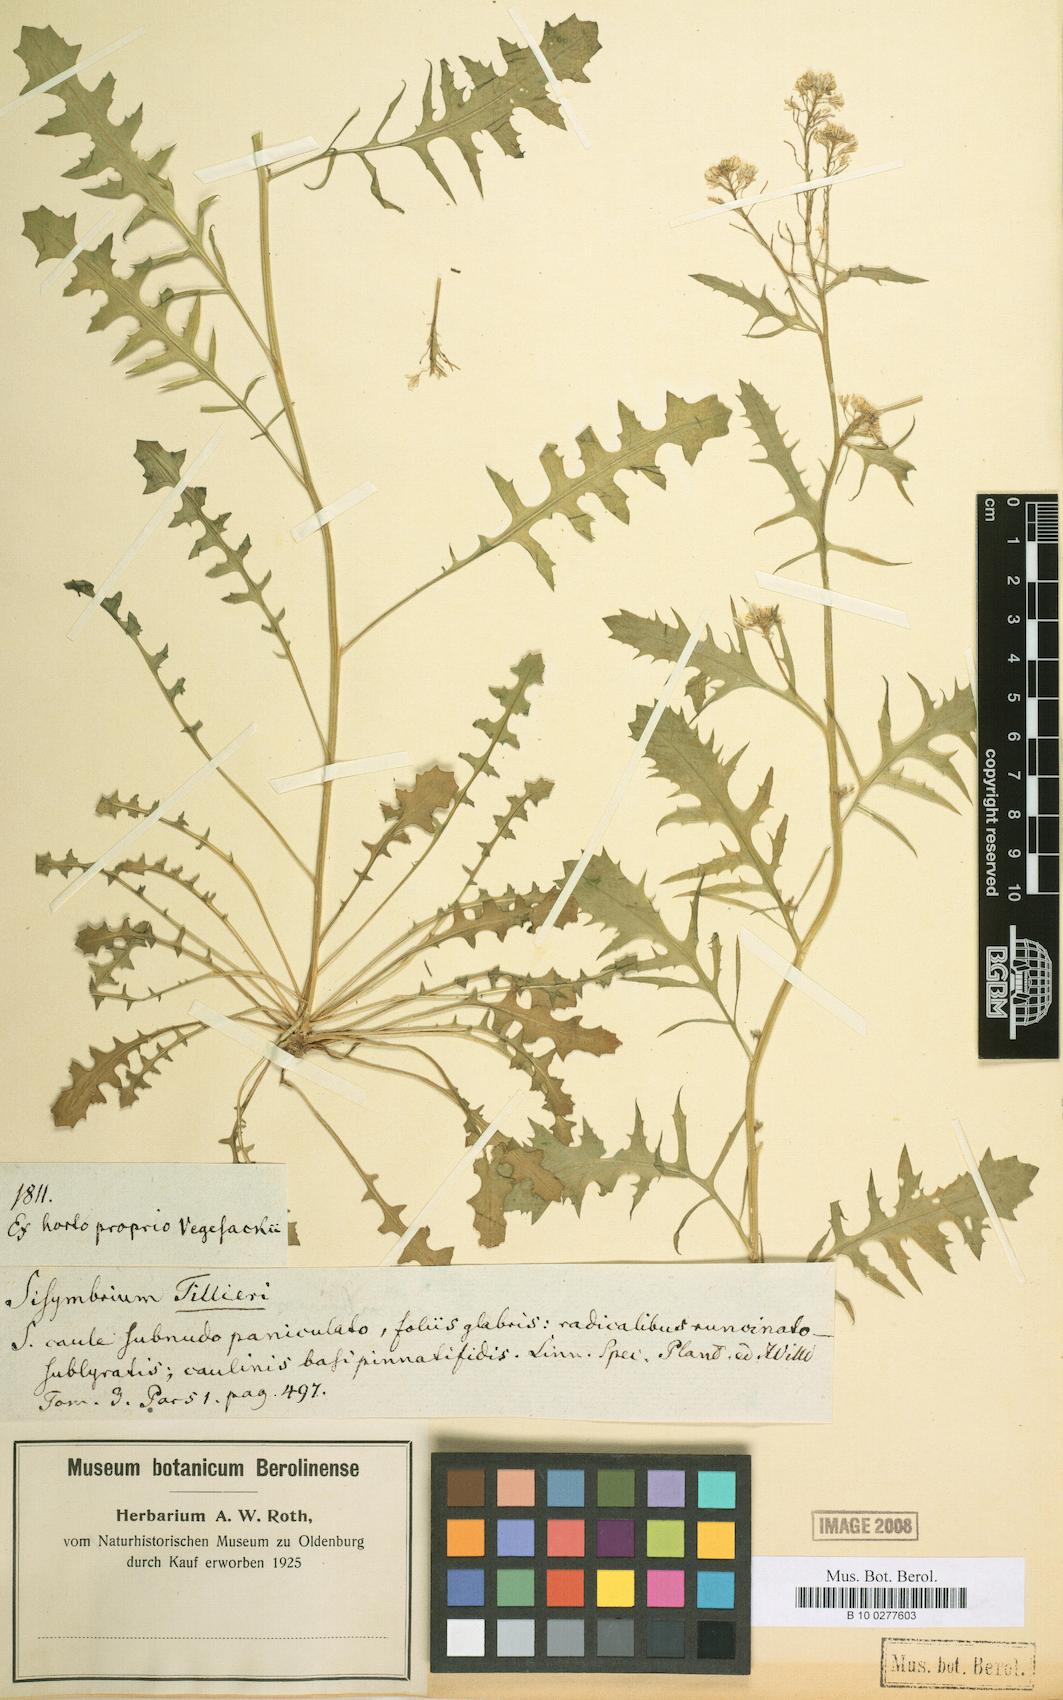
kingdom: Plantae
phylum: Tracheophyta
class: Magnoliopsida
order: Brassicales
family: Brassicaceae
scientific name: Brassicaceae
